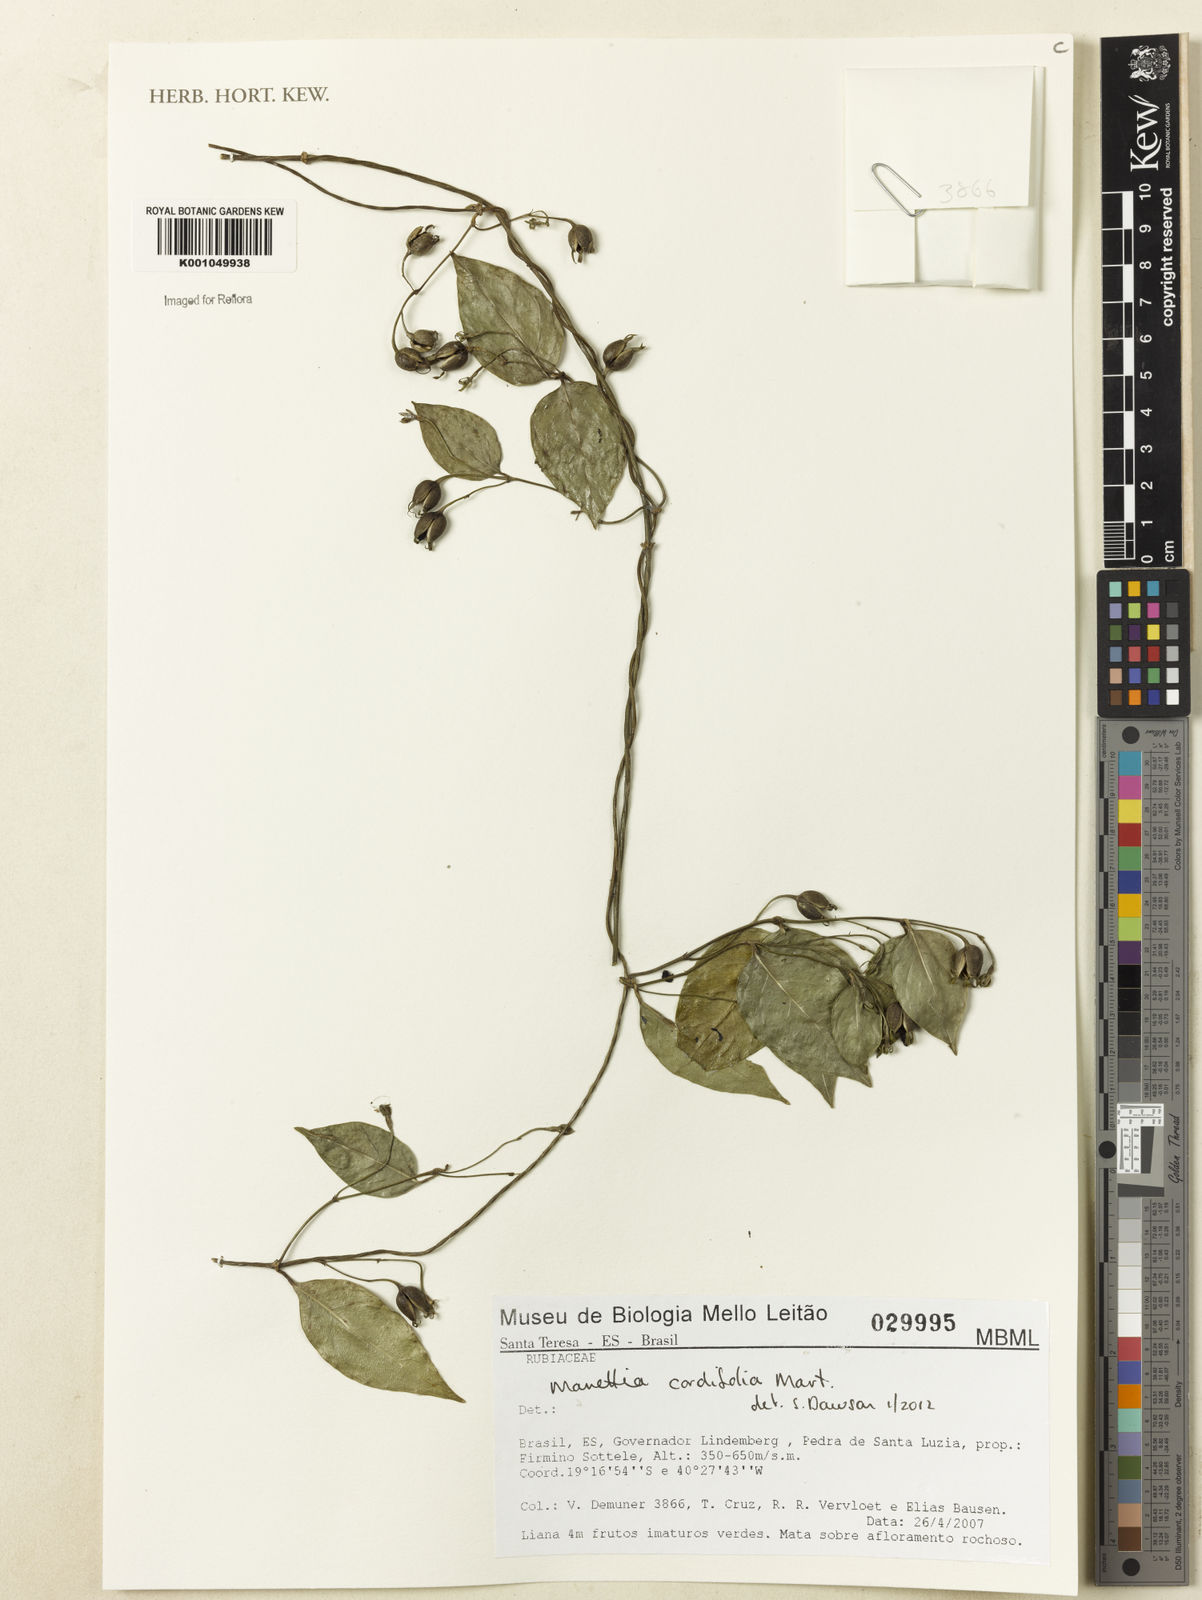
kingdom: Plantae
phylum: Tracheophyta
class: Magnoliopsida
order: Gentianales
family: Rubiaceae
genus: Manettia
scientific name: Manettia cordifolia
